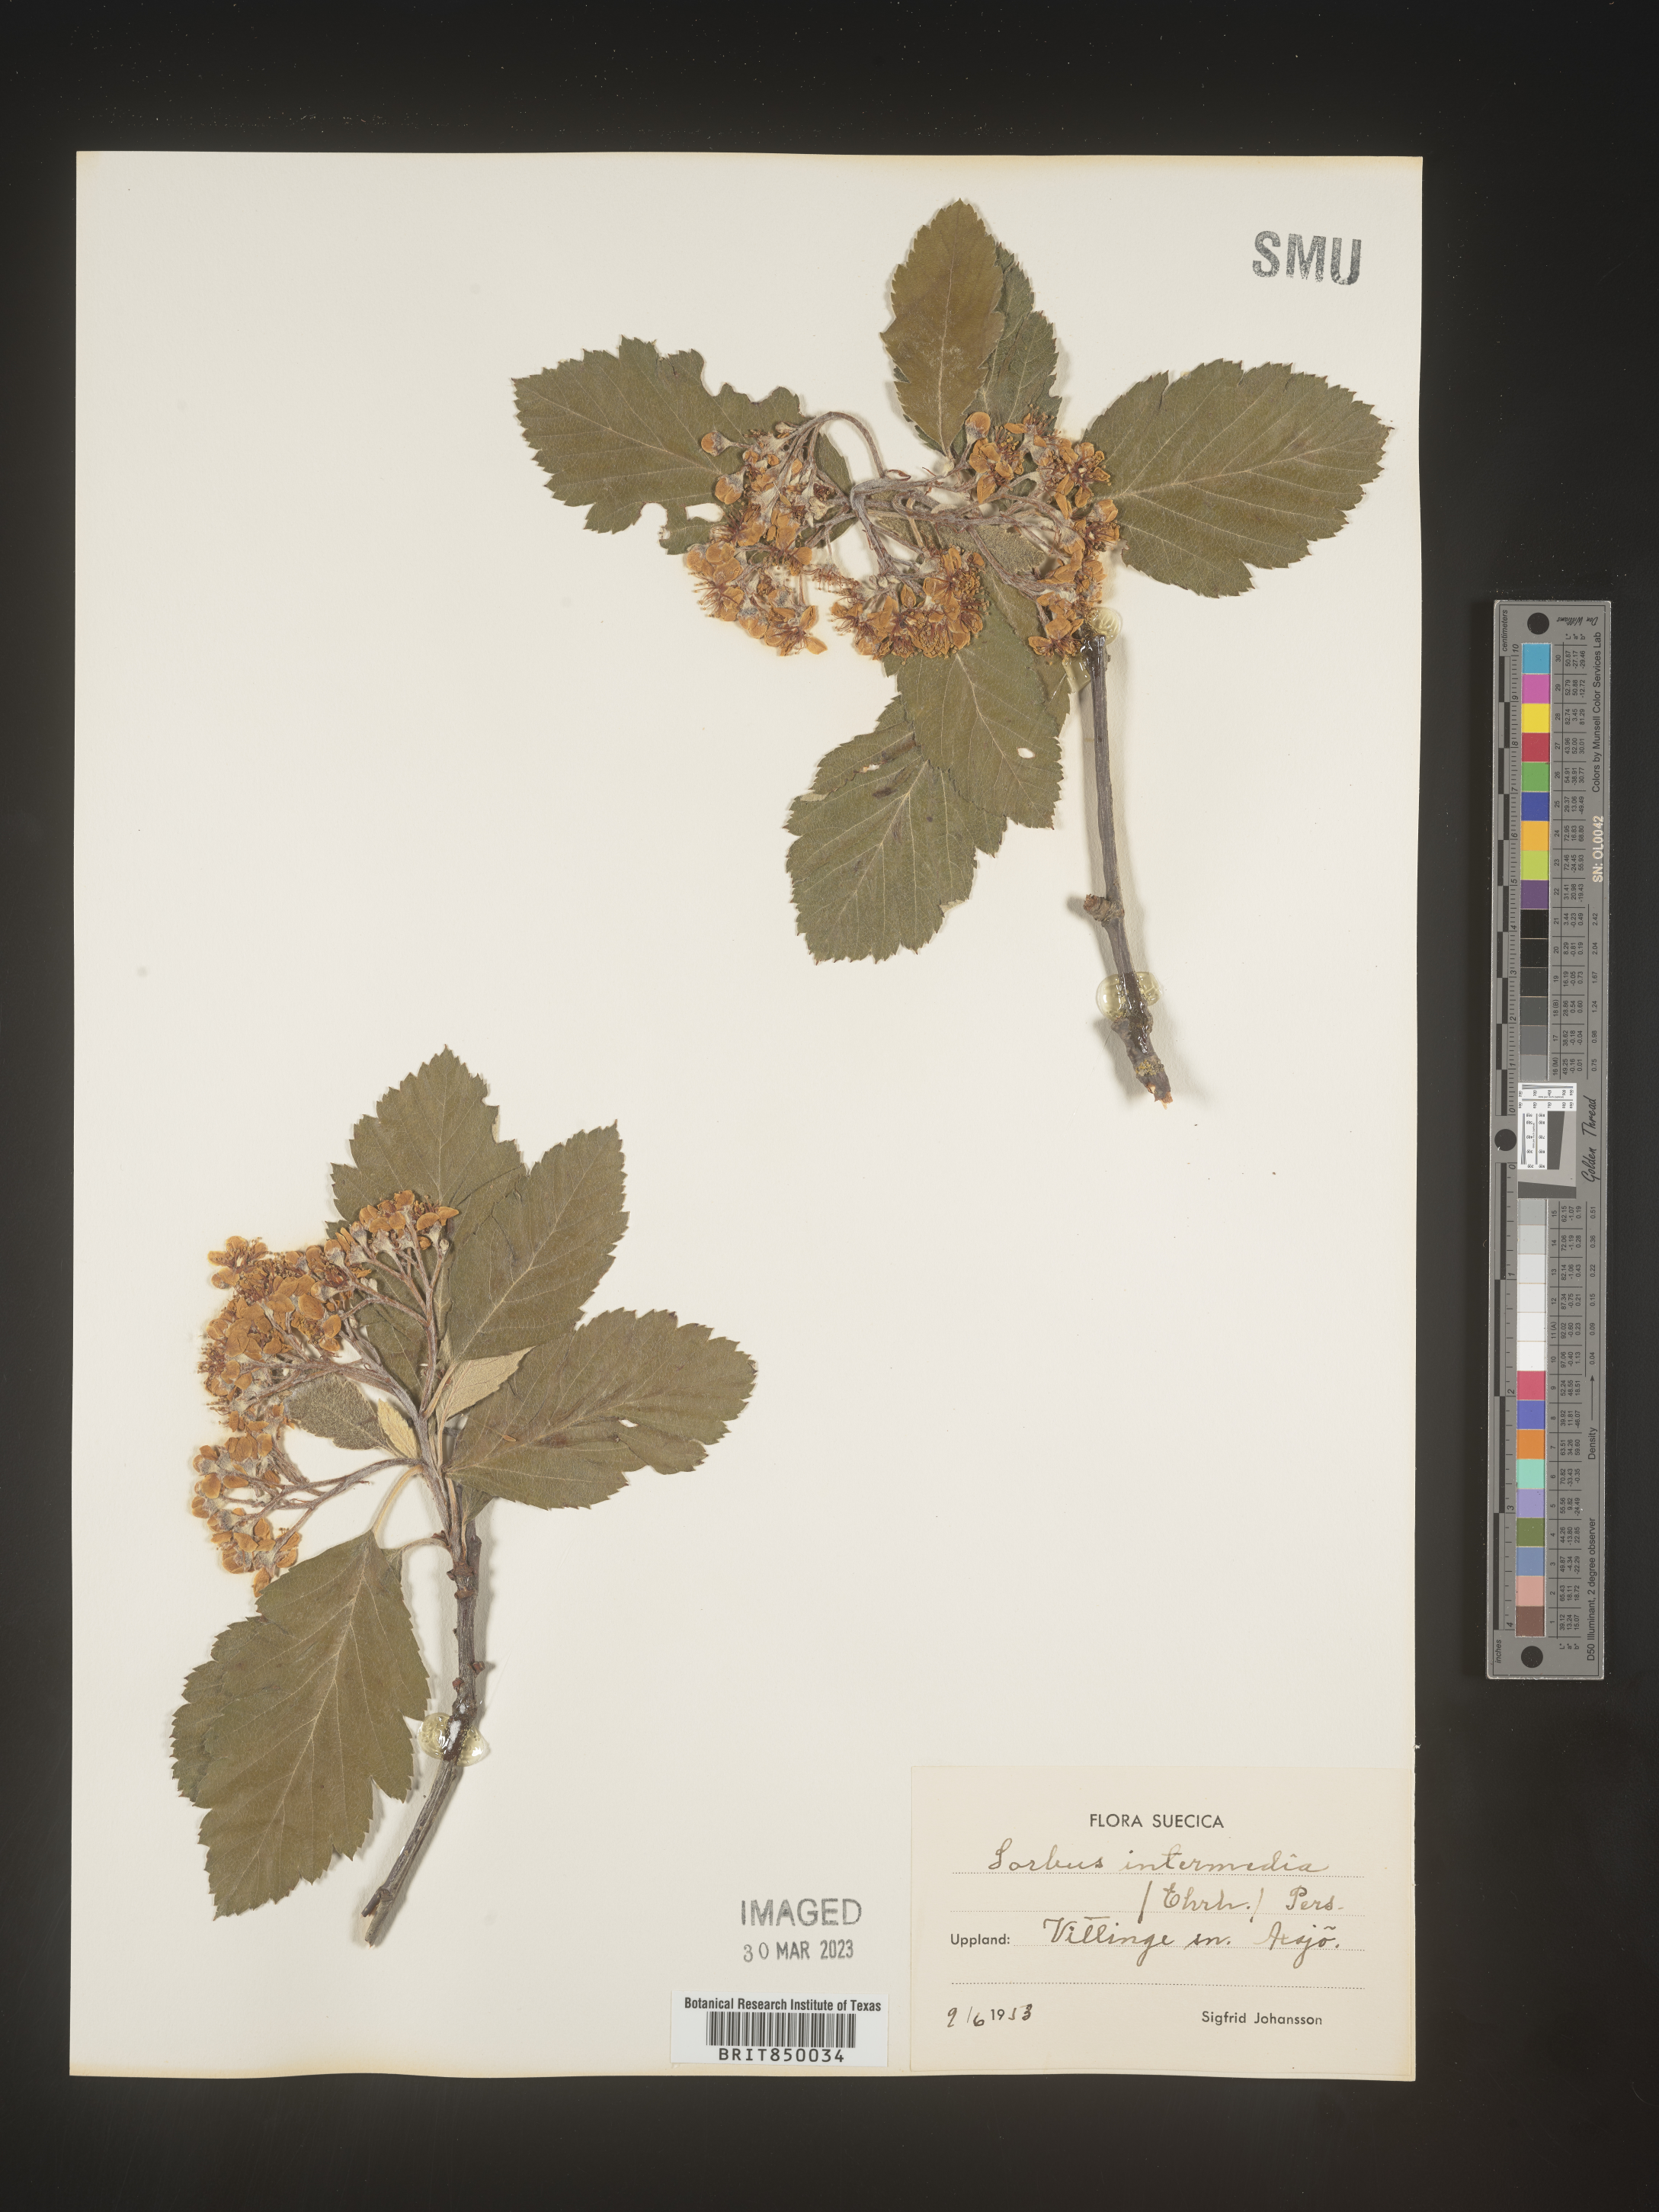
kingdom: Plantae
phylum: Tracheophyta
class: Magnoliopsida
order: Rosales
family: Rosaceae
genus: Sorbus
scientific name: Sorbus
